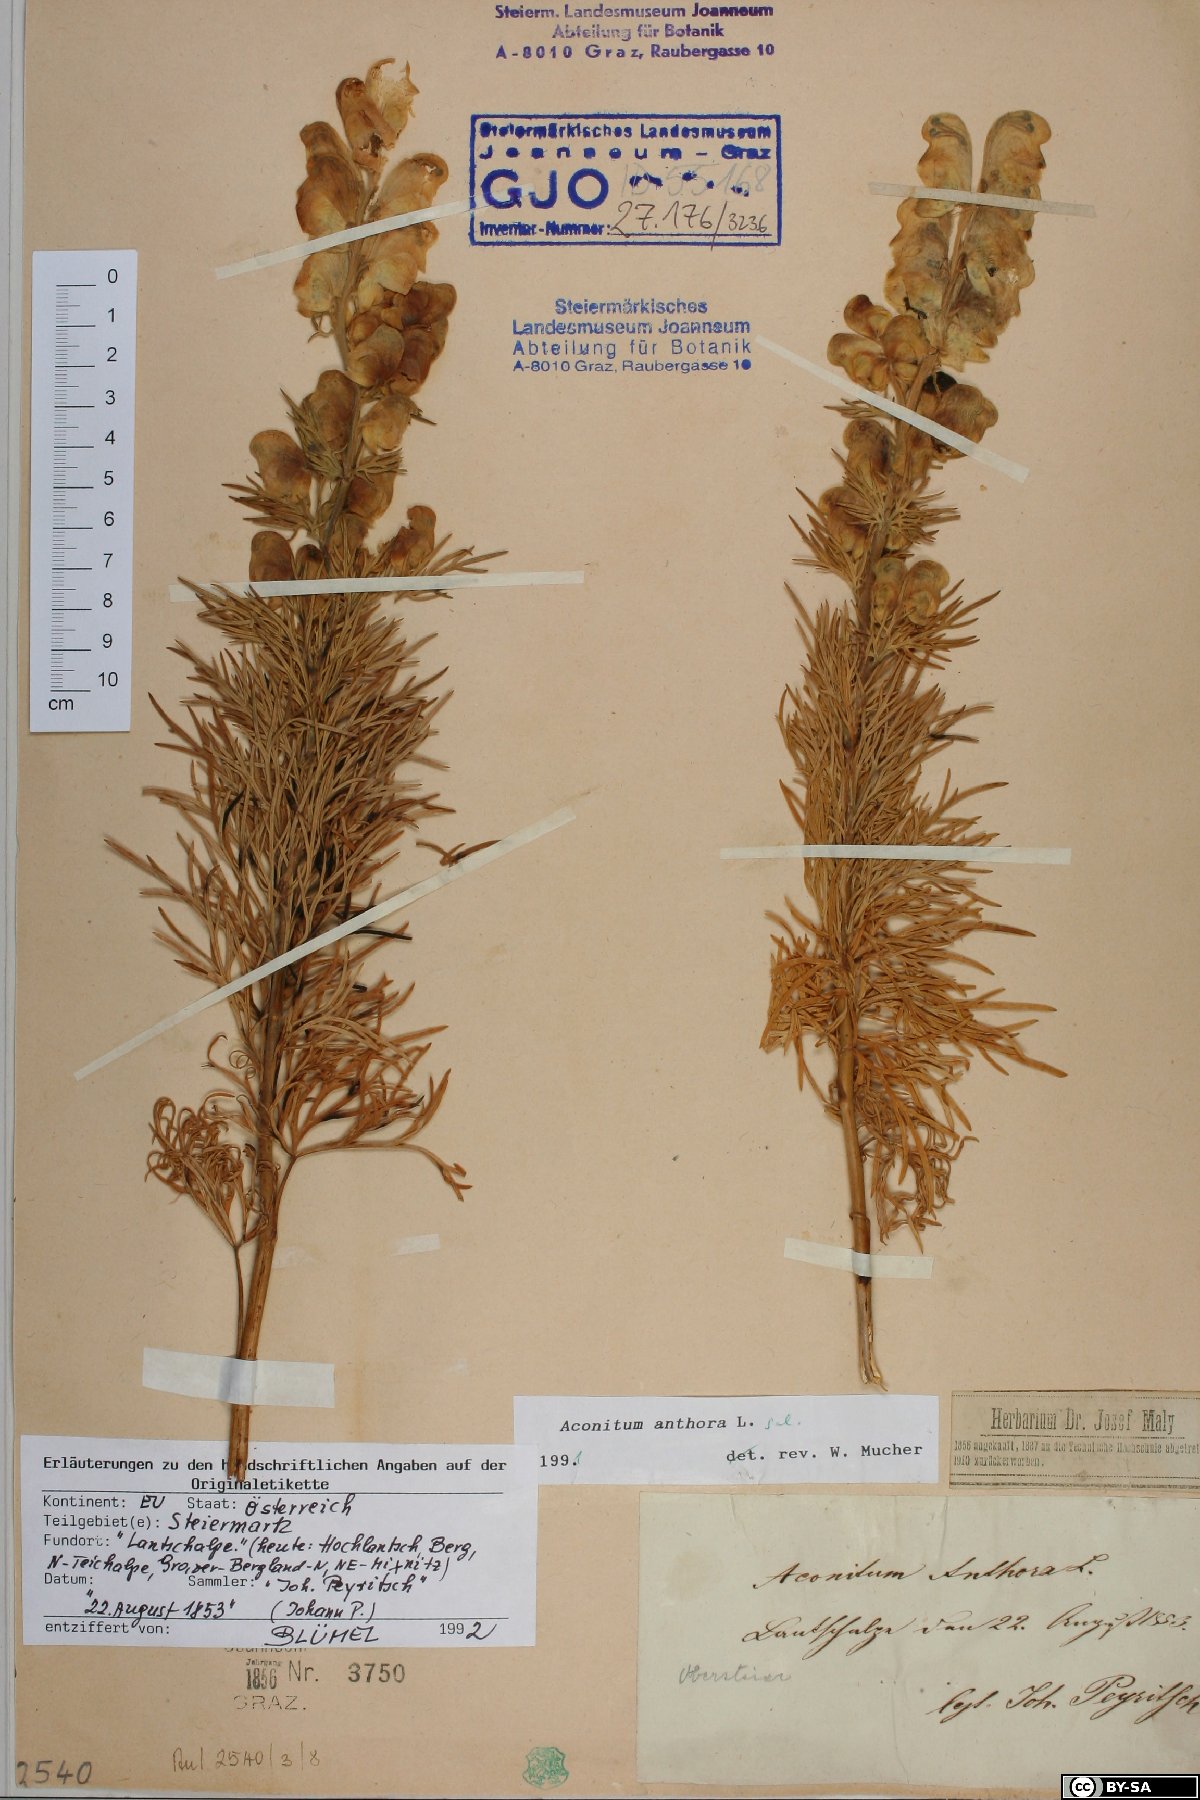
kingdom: Plantae
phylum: Tracheophyta
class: Magnoliopsida
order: Ranunculales
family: Ranunculaceae
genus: Aconitum
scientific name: Aconitum anthora
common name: Yellow monkshood
